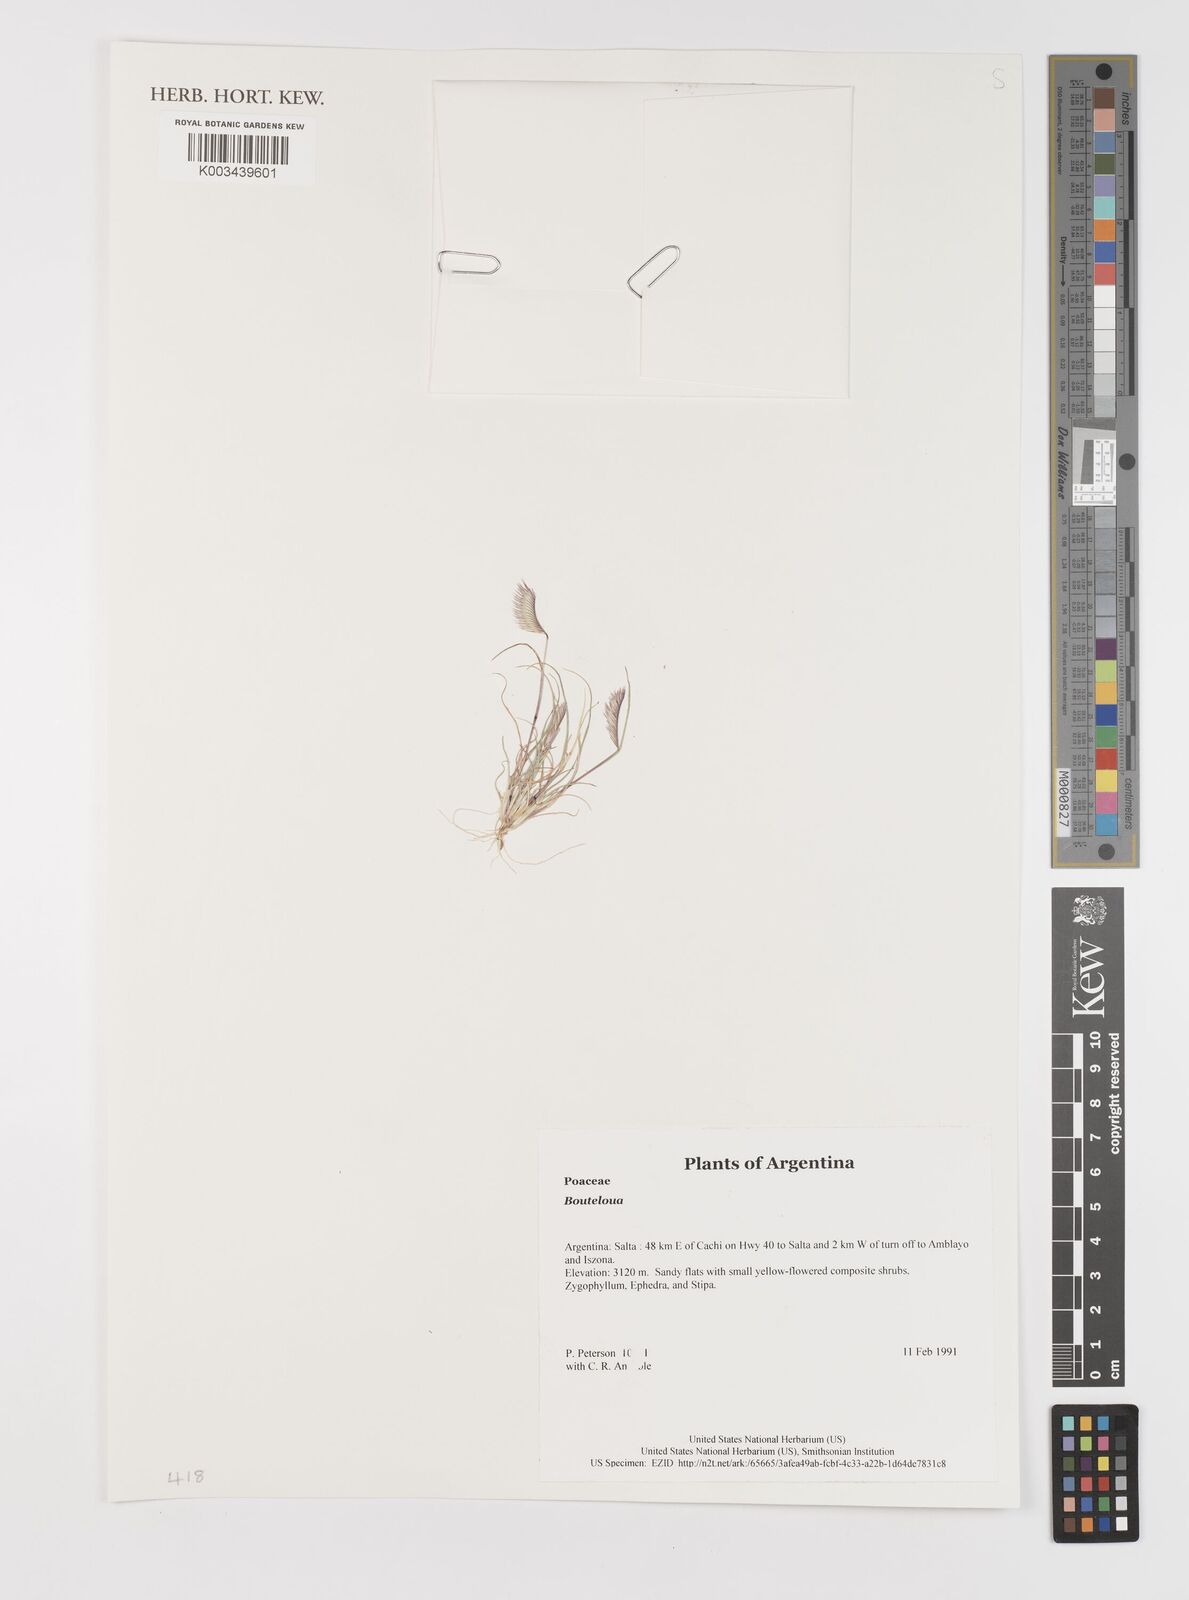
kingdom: Plantae
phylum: Tracheophyta
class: Liliopsida
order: Poales
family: Poaceae
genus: Bouteloua
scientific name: Bouteloua
